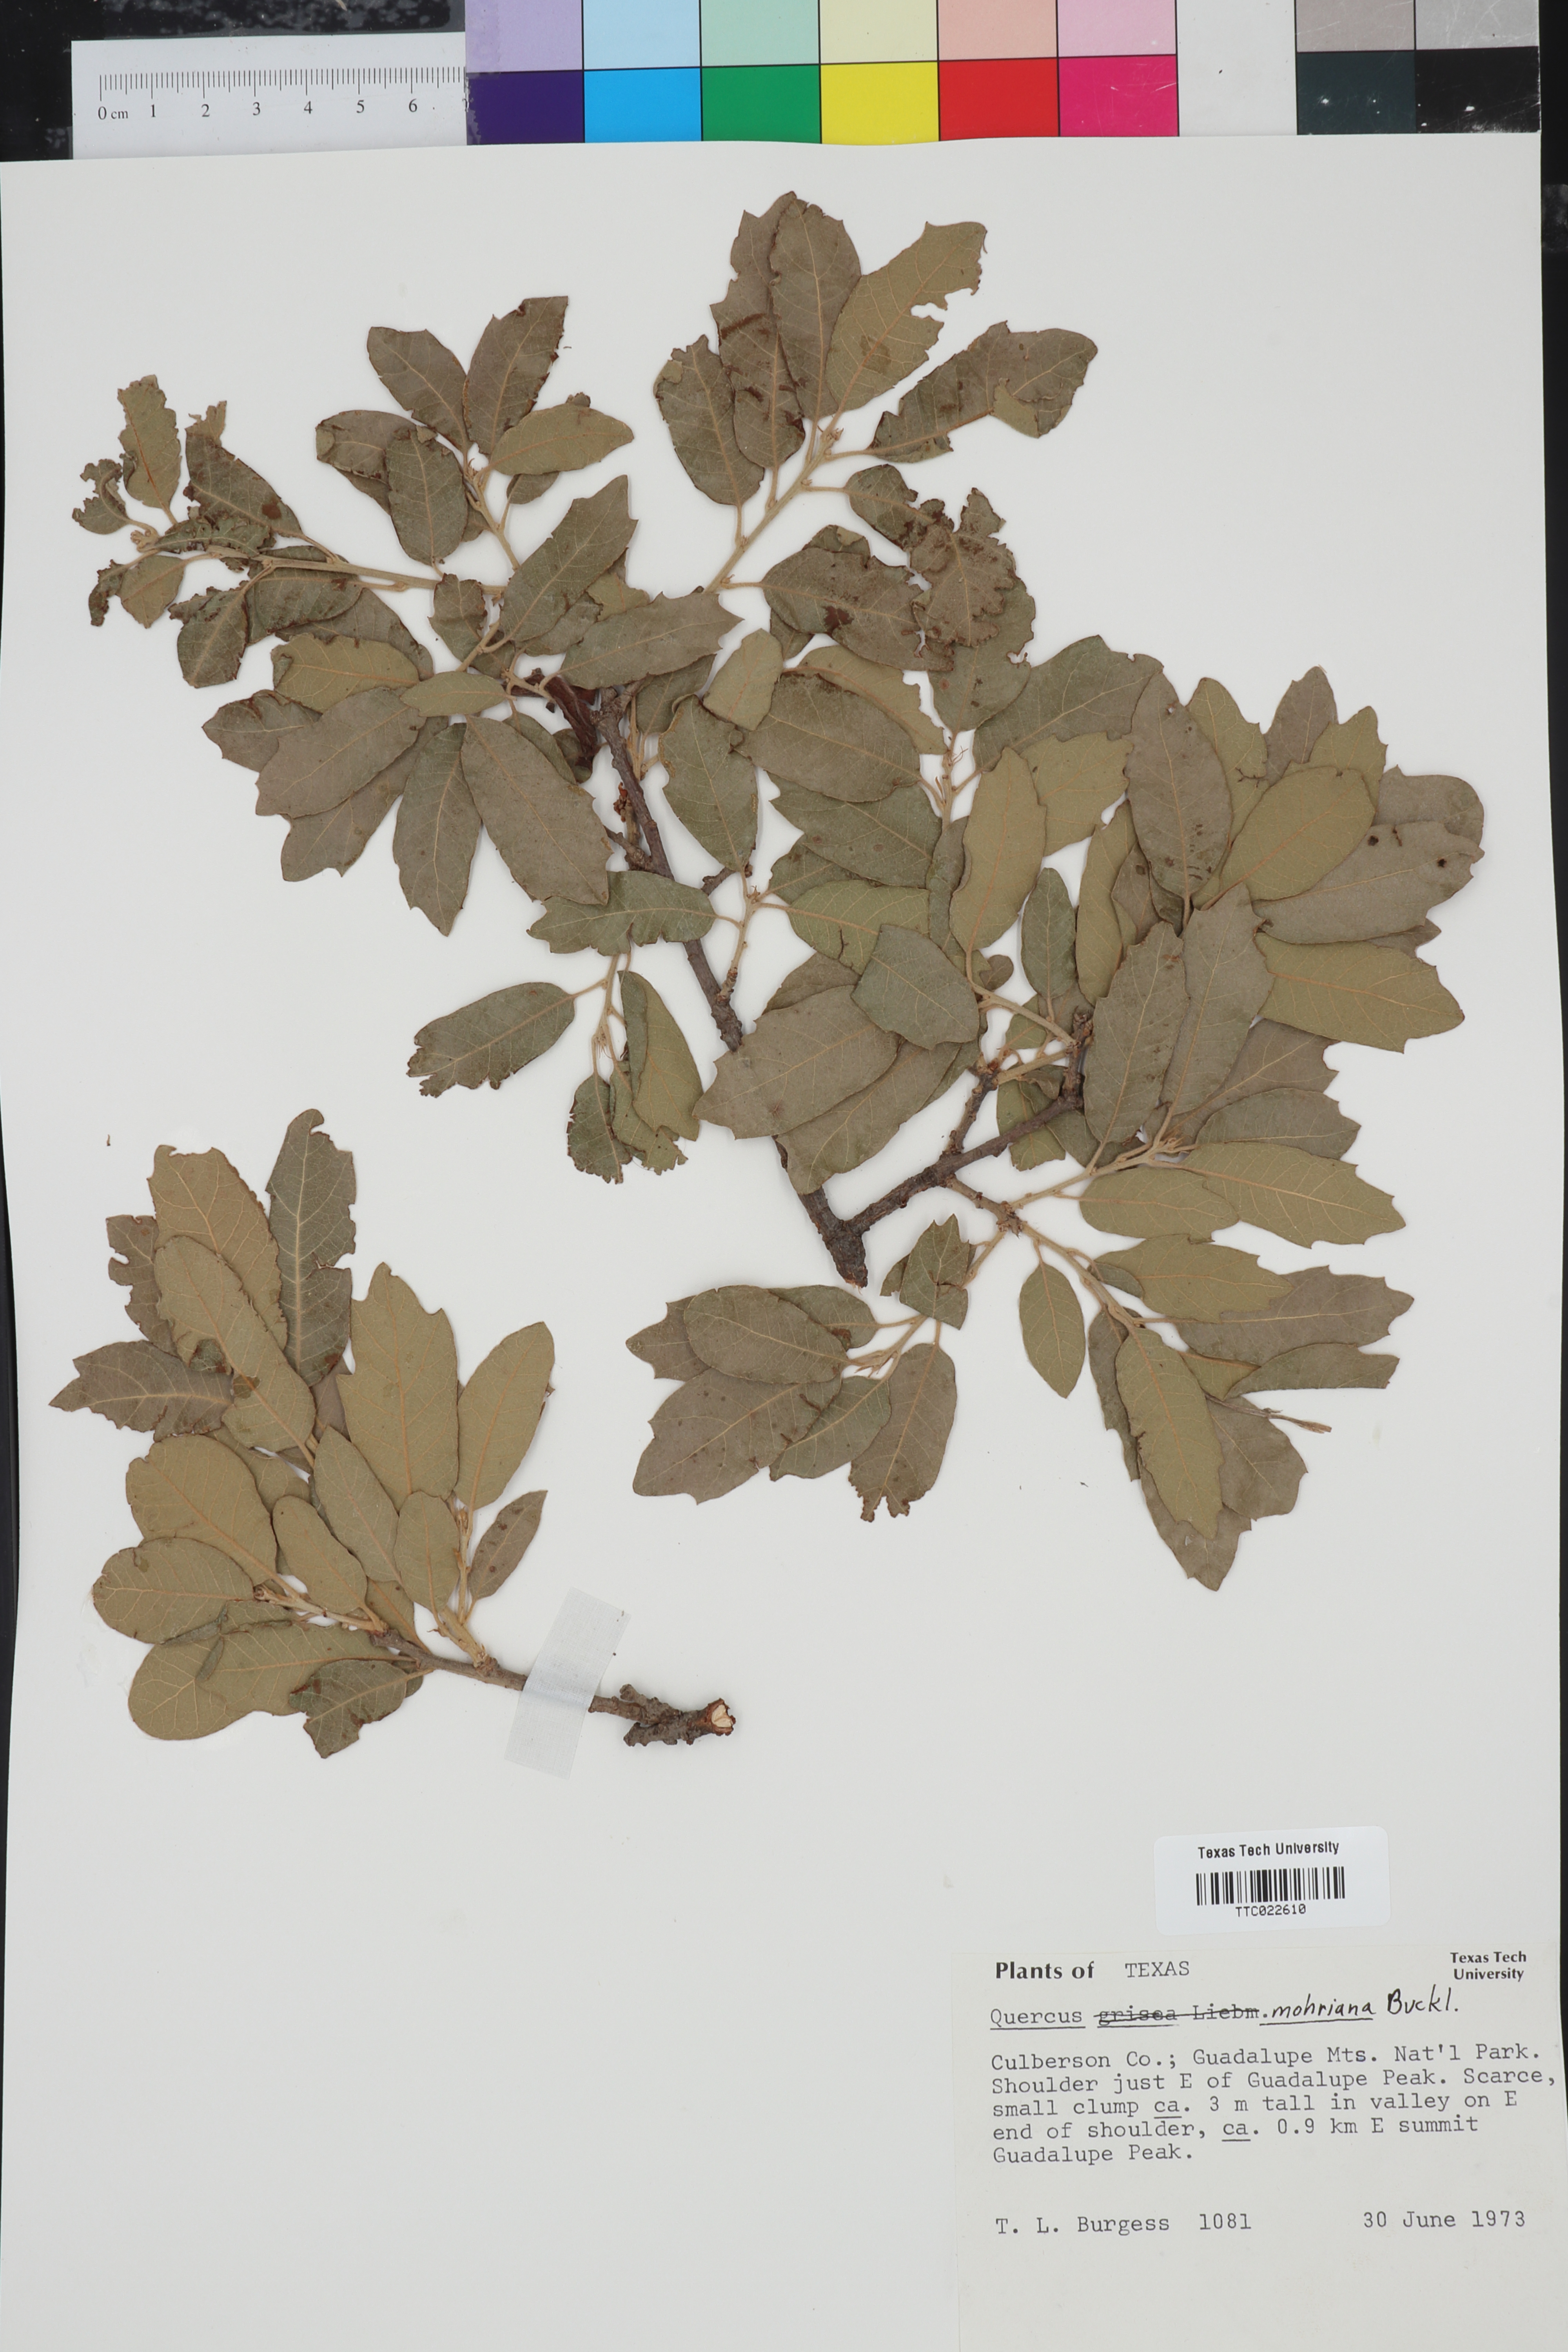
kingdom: Plantae
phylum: Tracheophyta
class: Magnoliopsida
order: Fagales
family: Fagaceae
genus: Quercus
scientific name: Quercus mohriana
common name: Mohr oak
